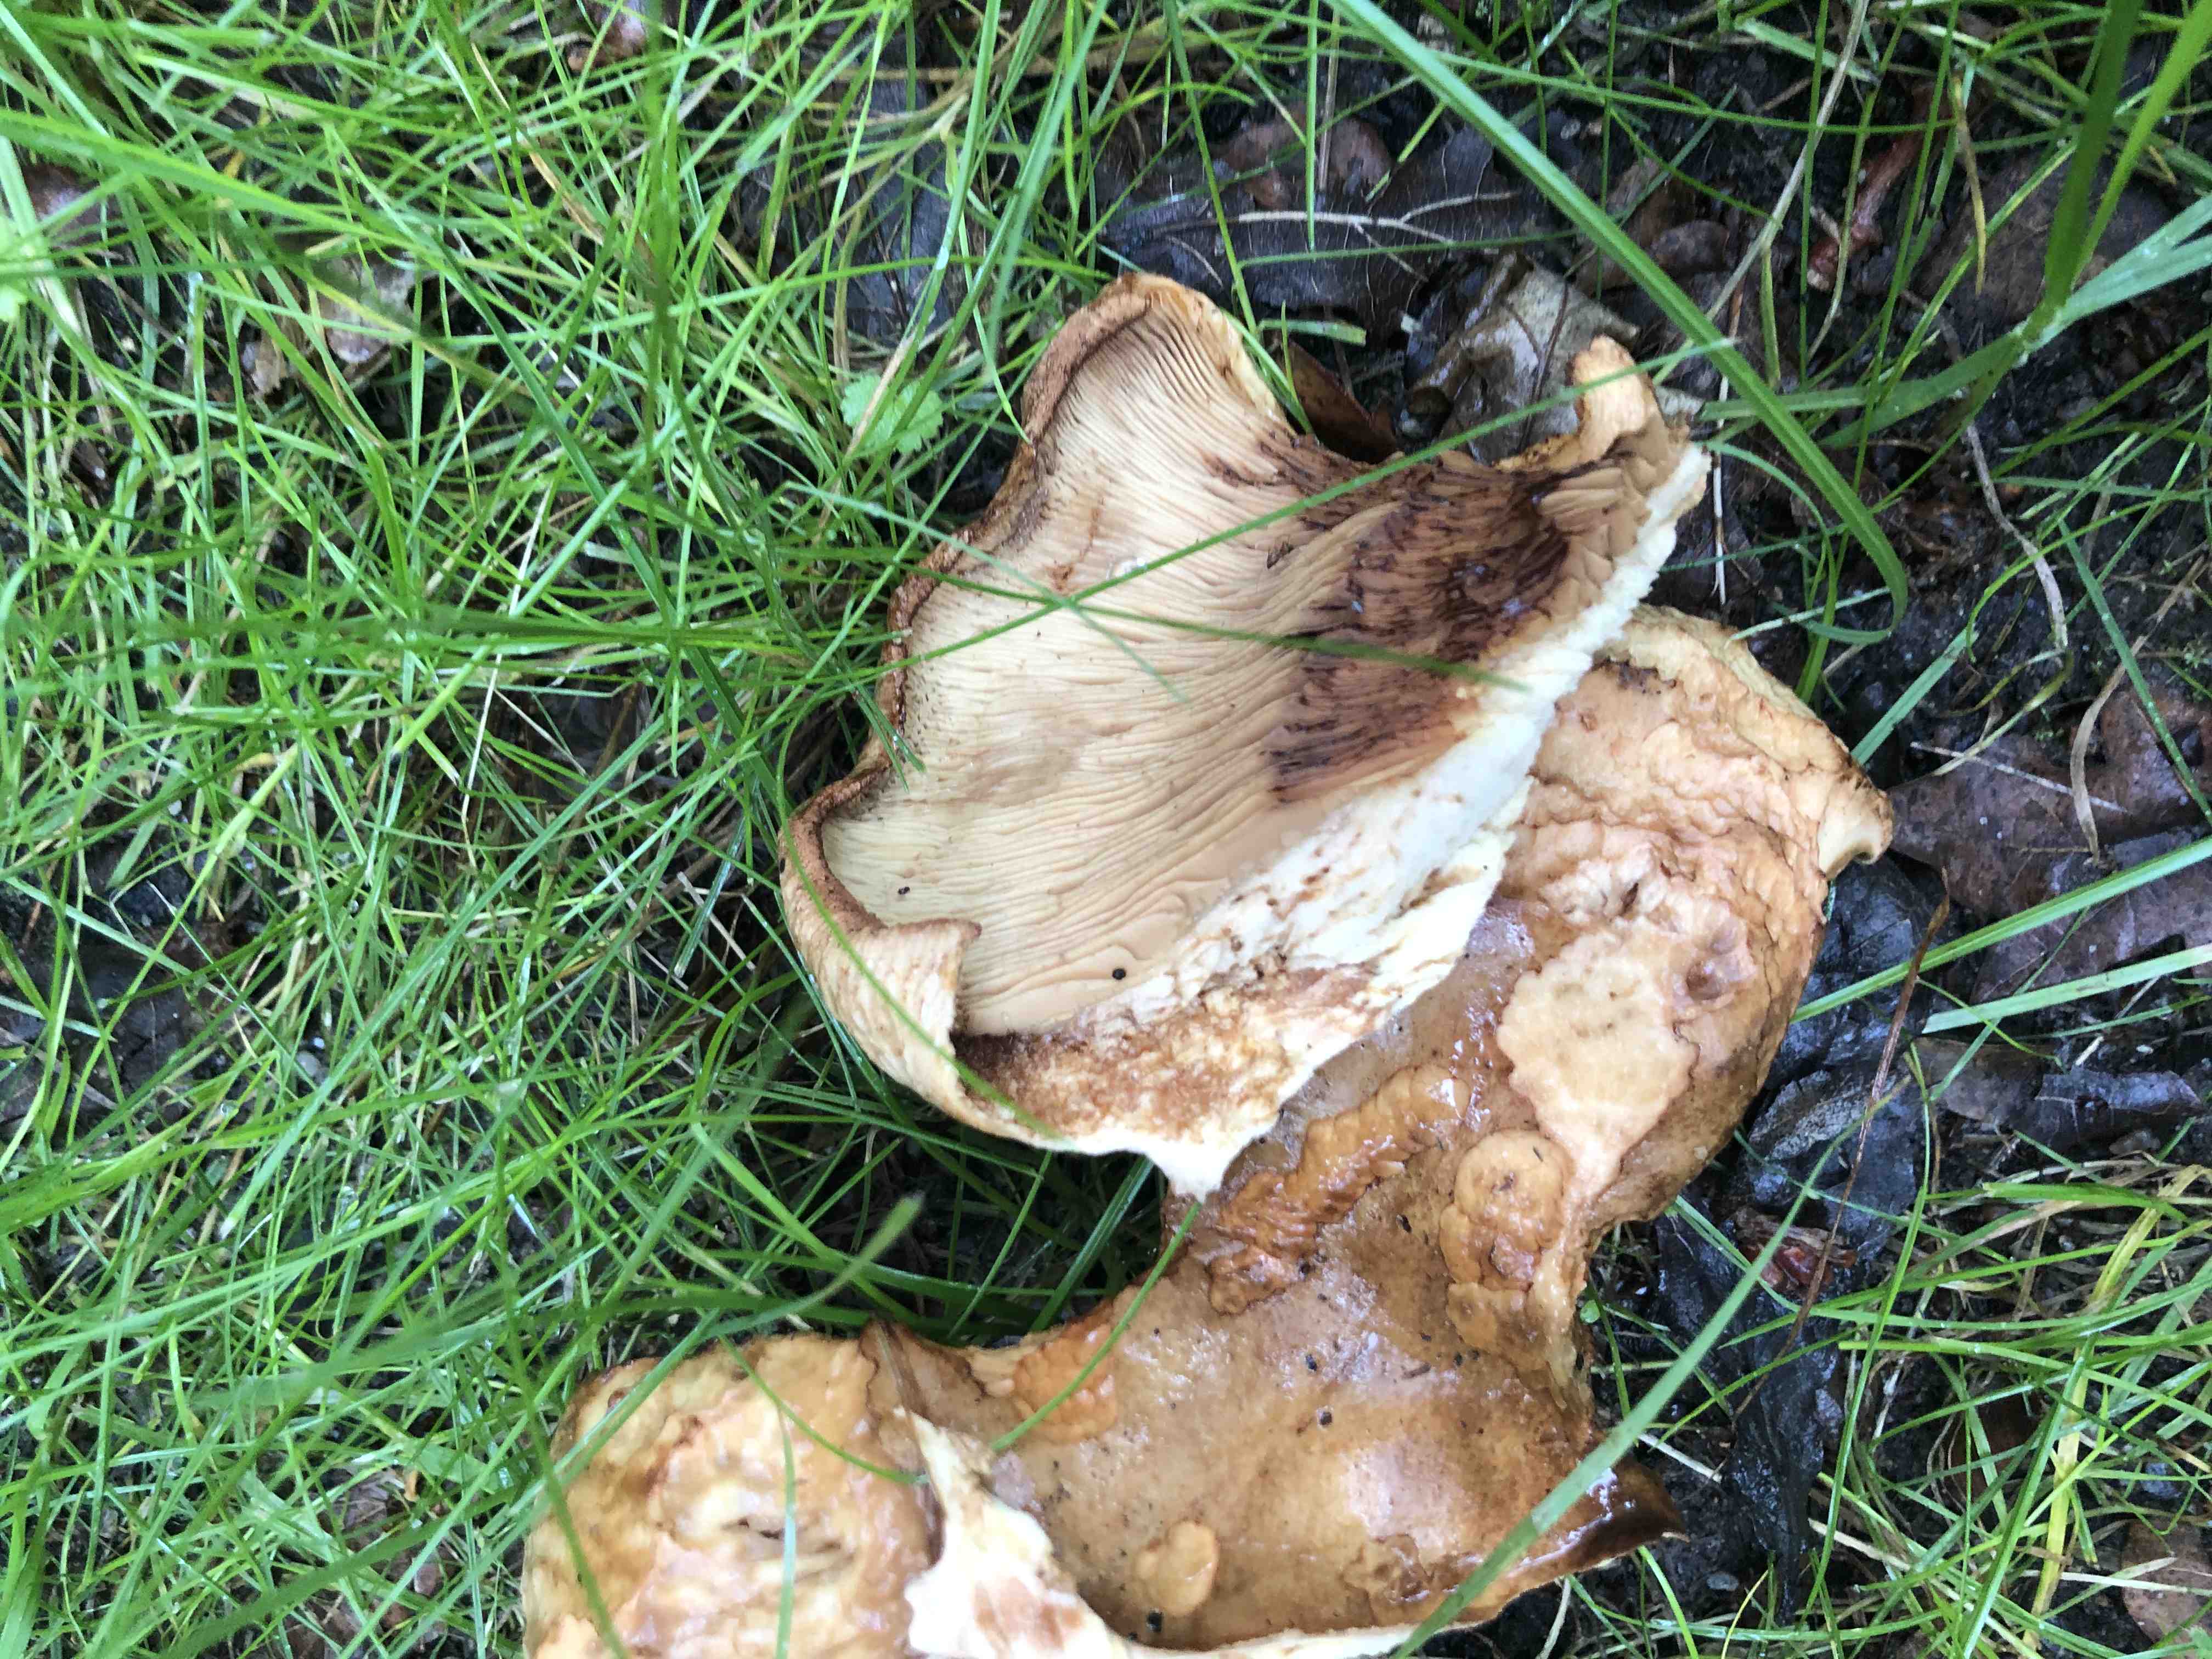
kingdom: Fungi
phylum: Basidiomycota
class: Agaricomycetes
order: Boletales
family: Paxillaceae
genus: Paxillus
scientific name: Paxillus
